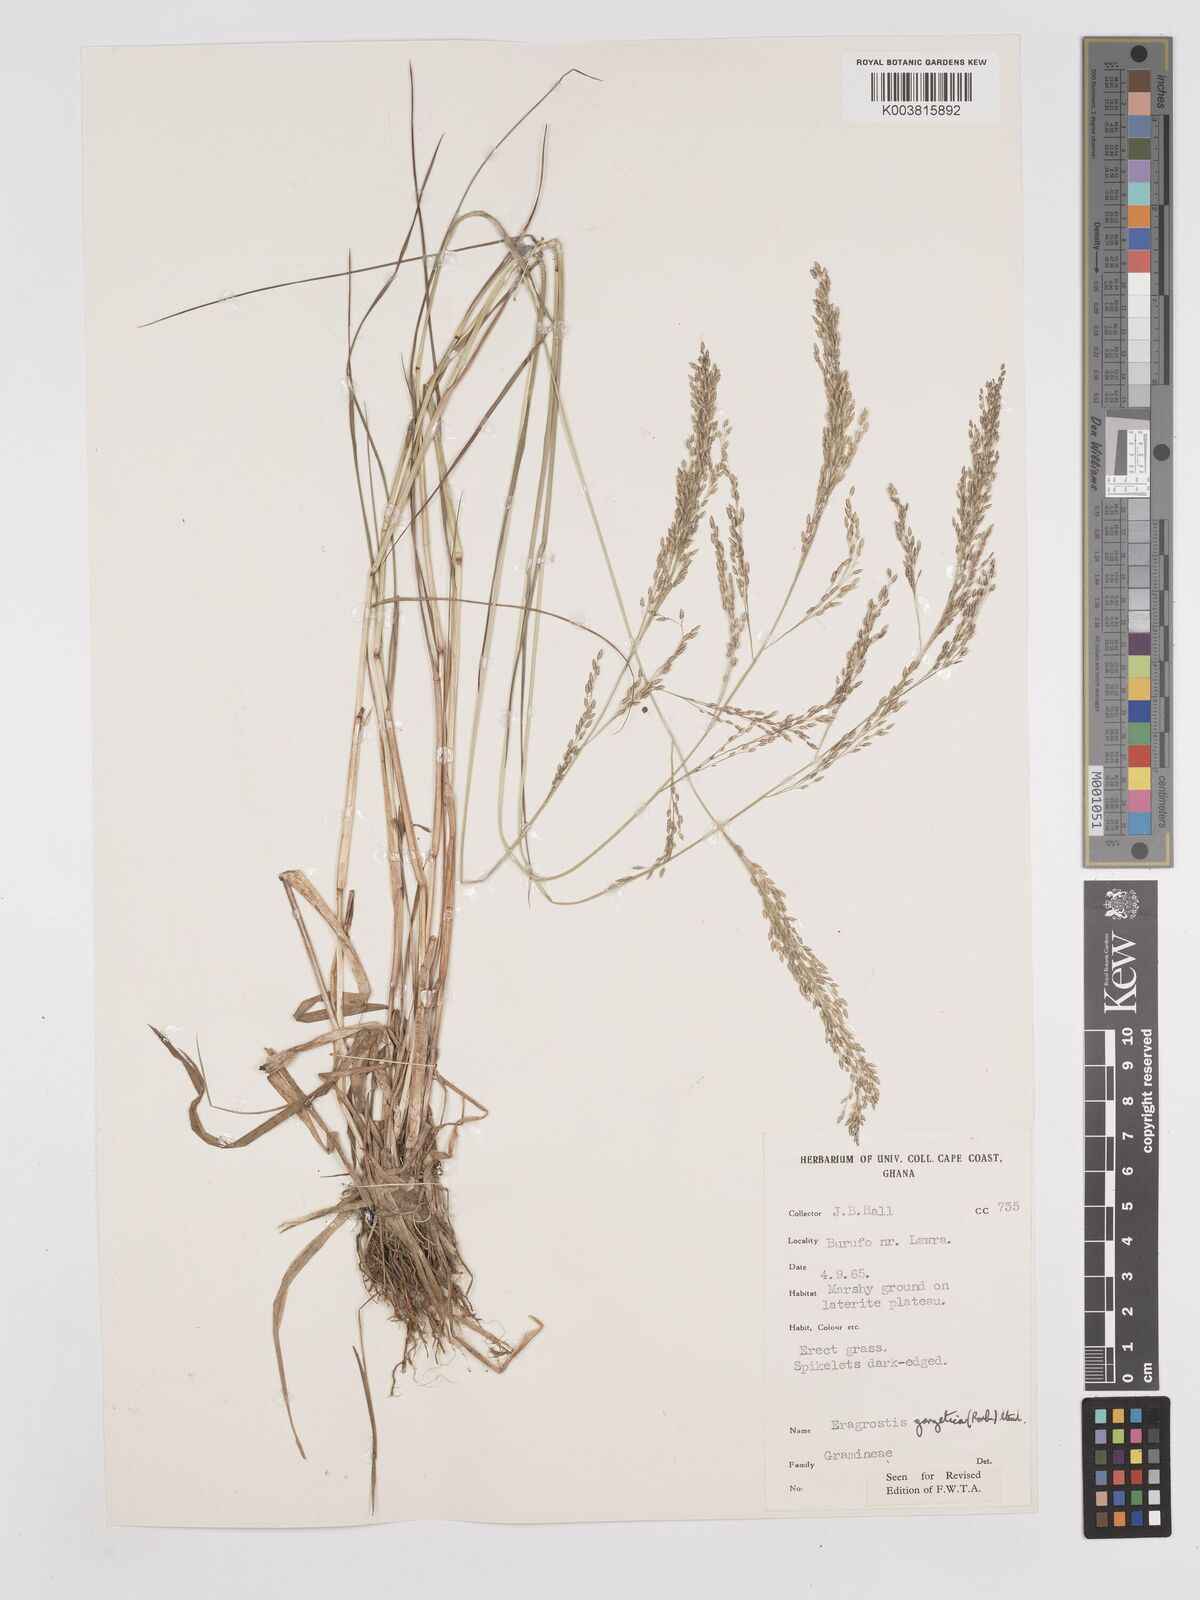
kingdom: Plantae
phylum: Tracheophyta
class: Liliopsida
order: Poales
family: Poaceae
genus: Eragrostis
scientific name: Eragrostis gangetica
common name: Slimflower lovegrass
